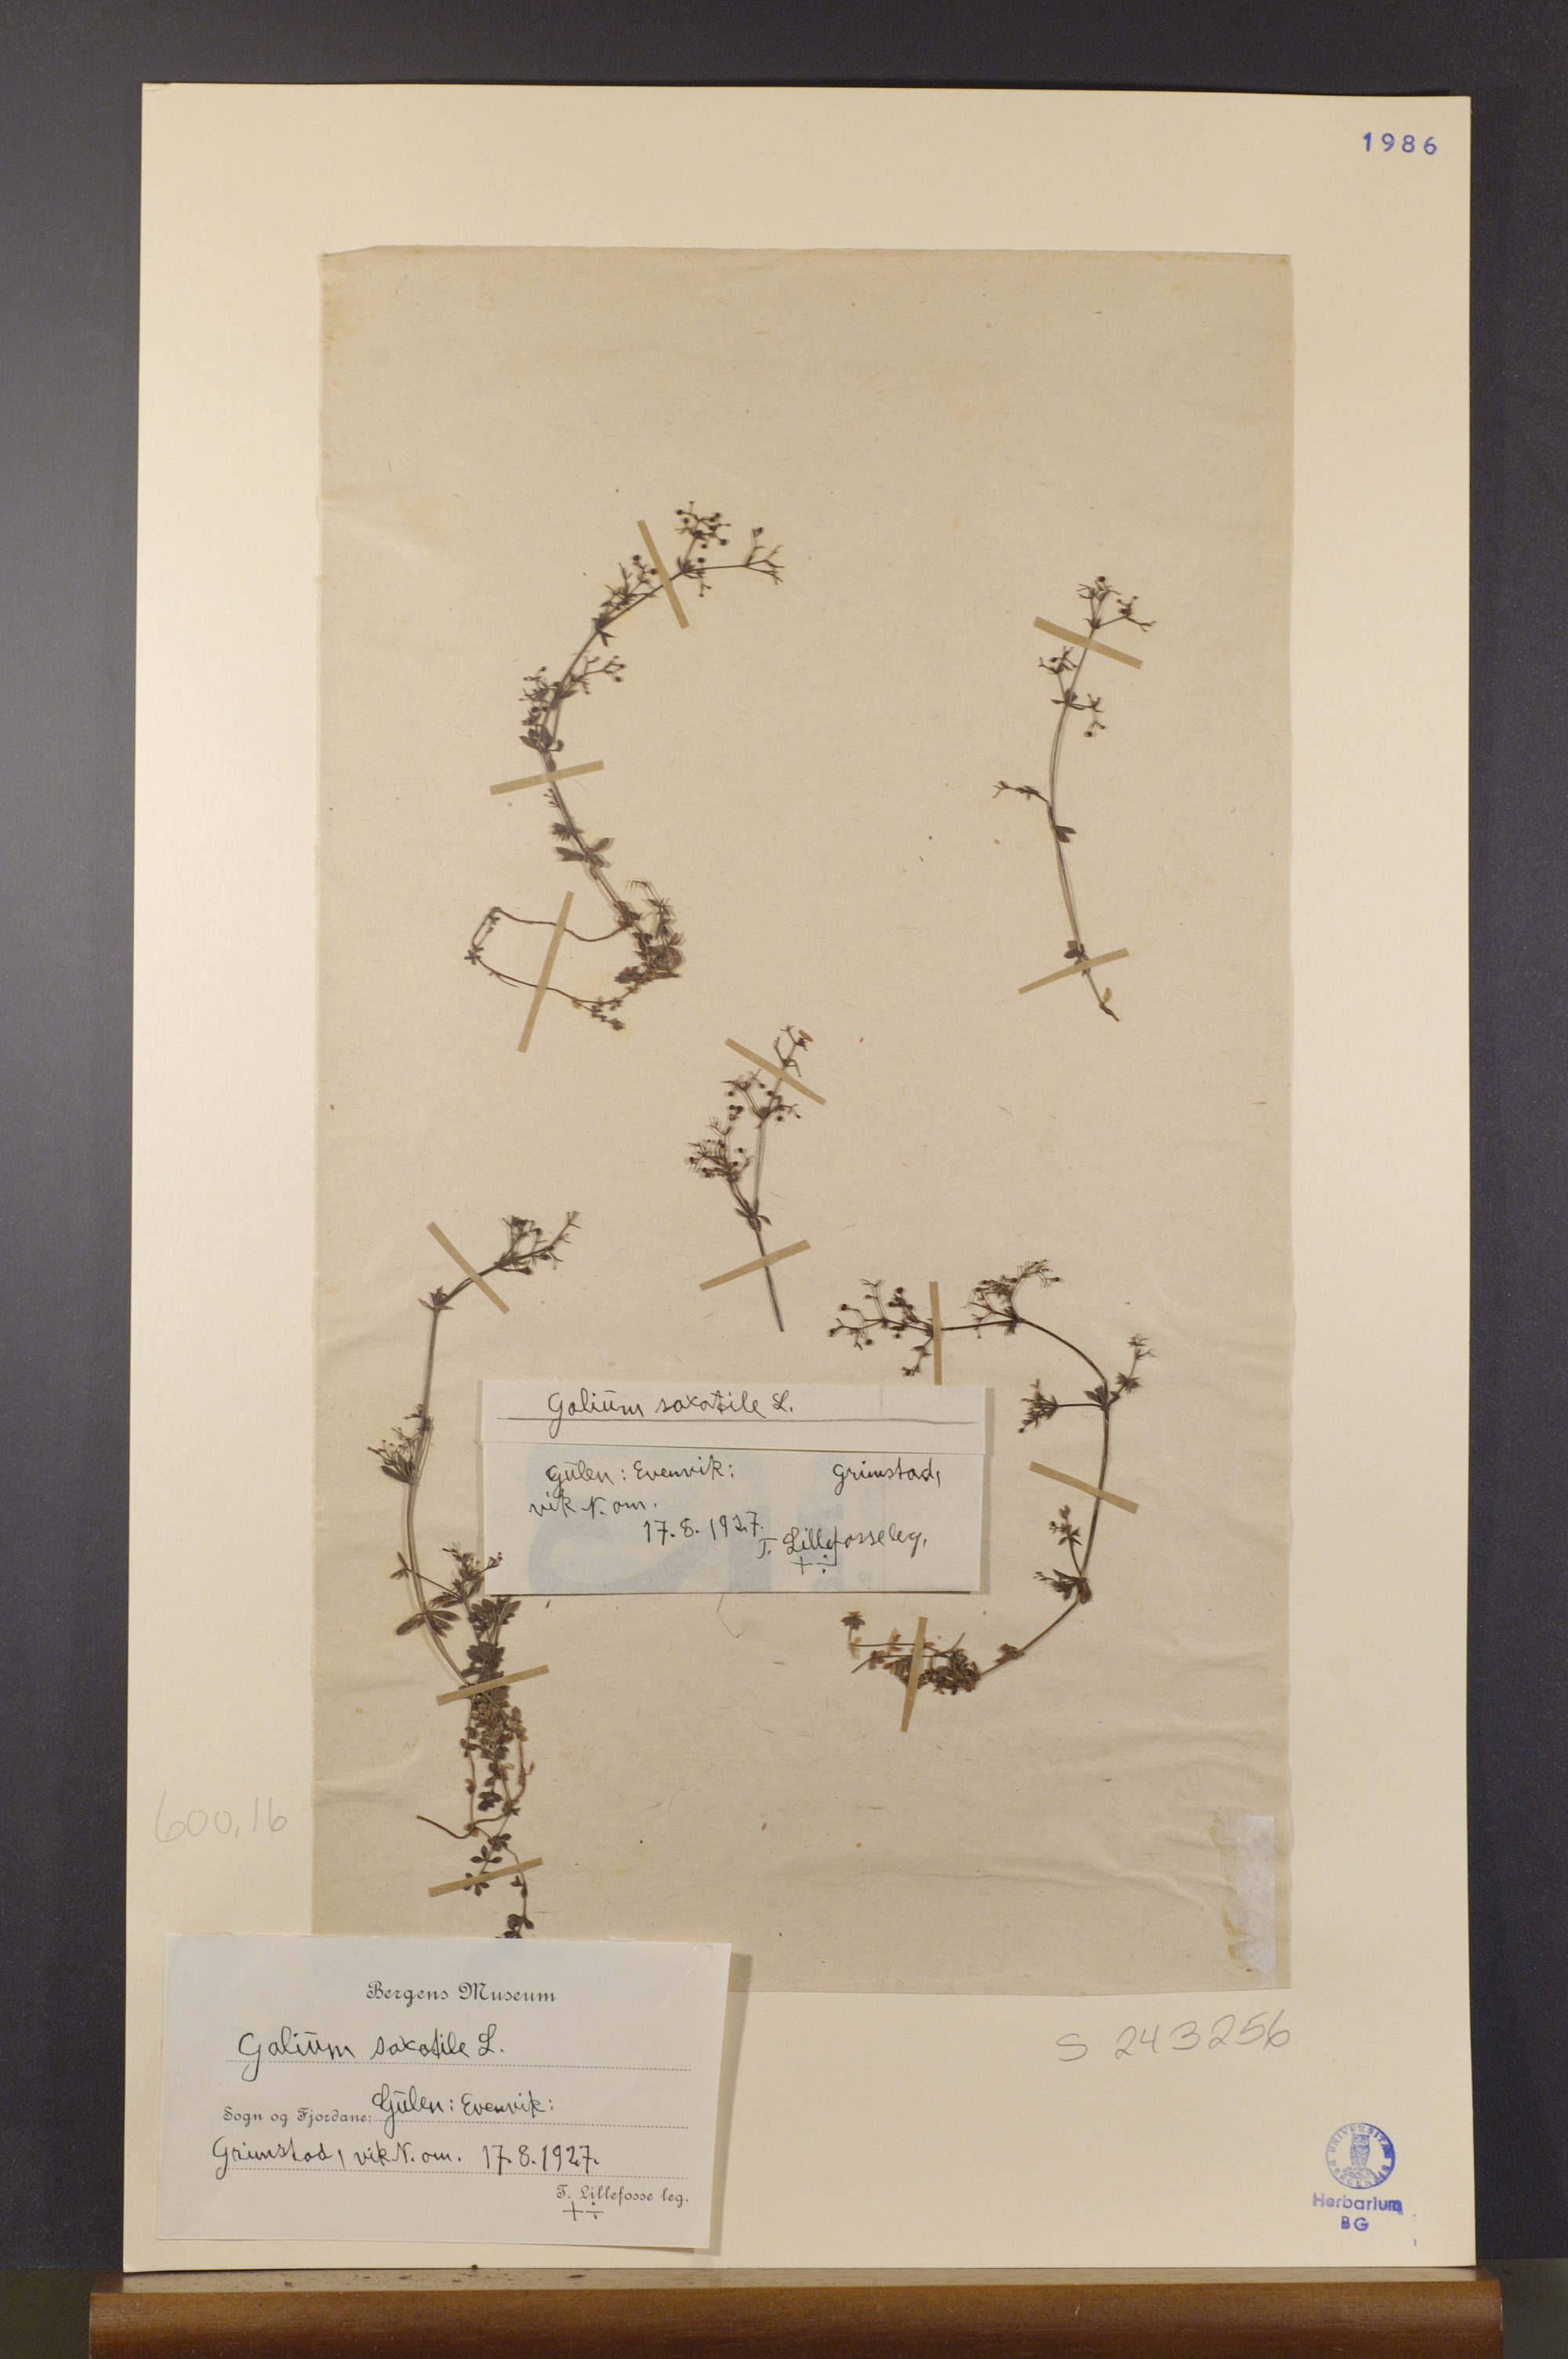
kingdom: Plantae
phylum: Tracheophyta
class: Magnoliopsida
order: Gentianales
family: Rubiaceae
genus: Galium
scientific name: Galium saxatile
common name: Heath bedstraw
